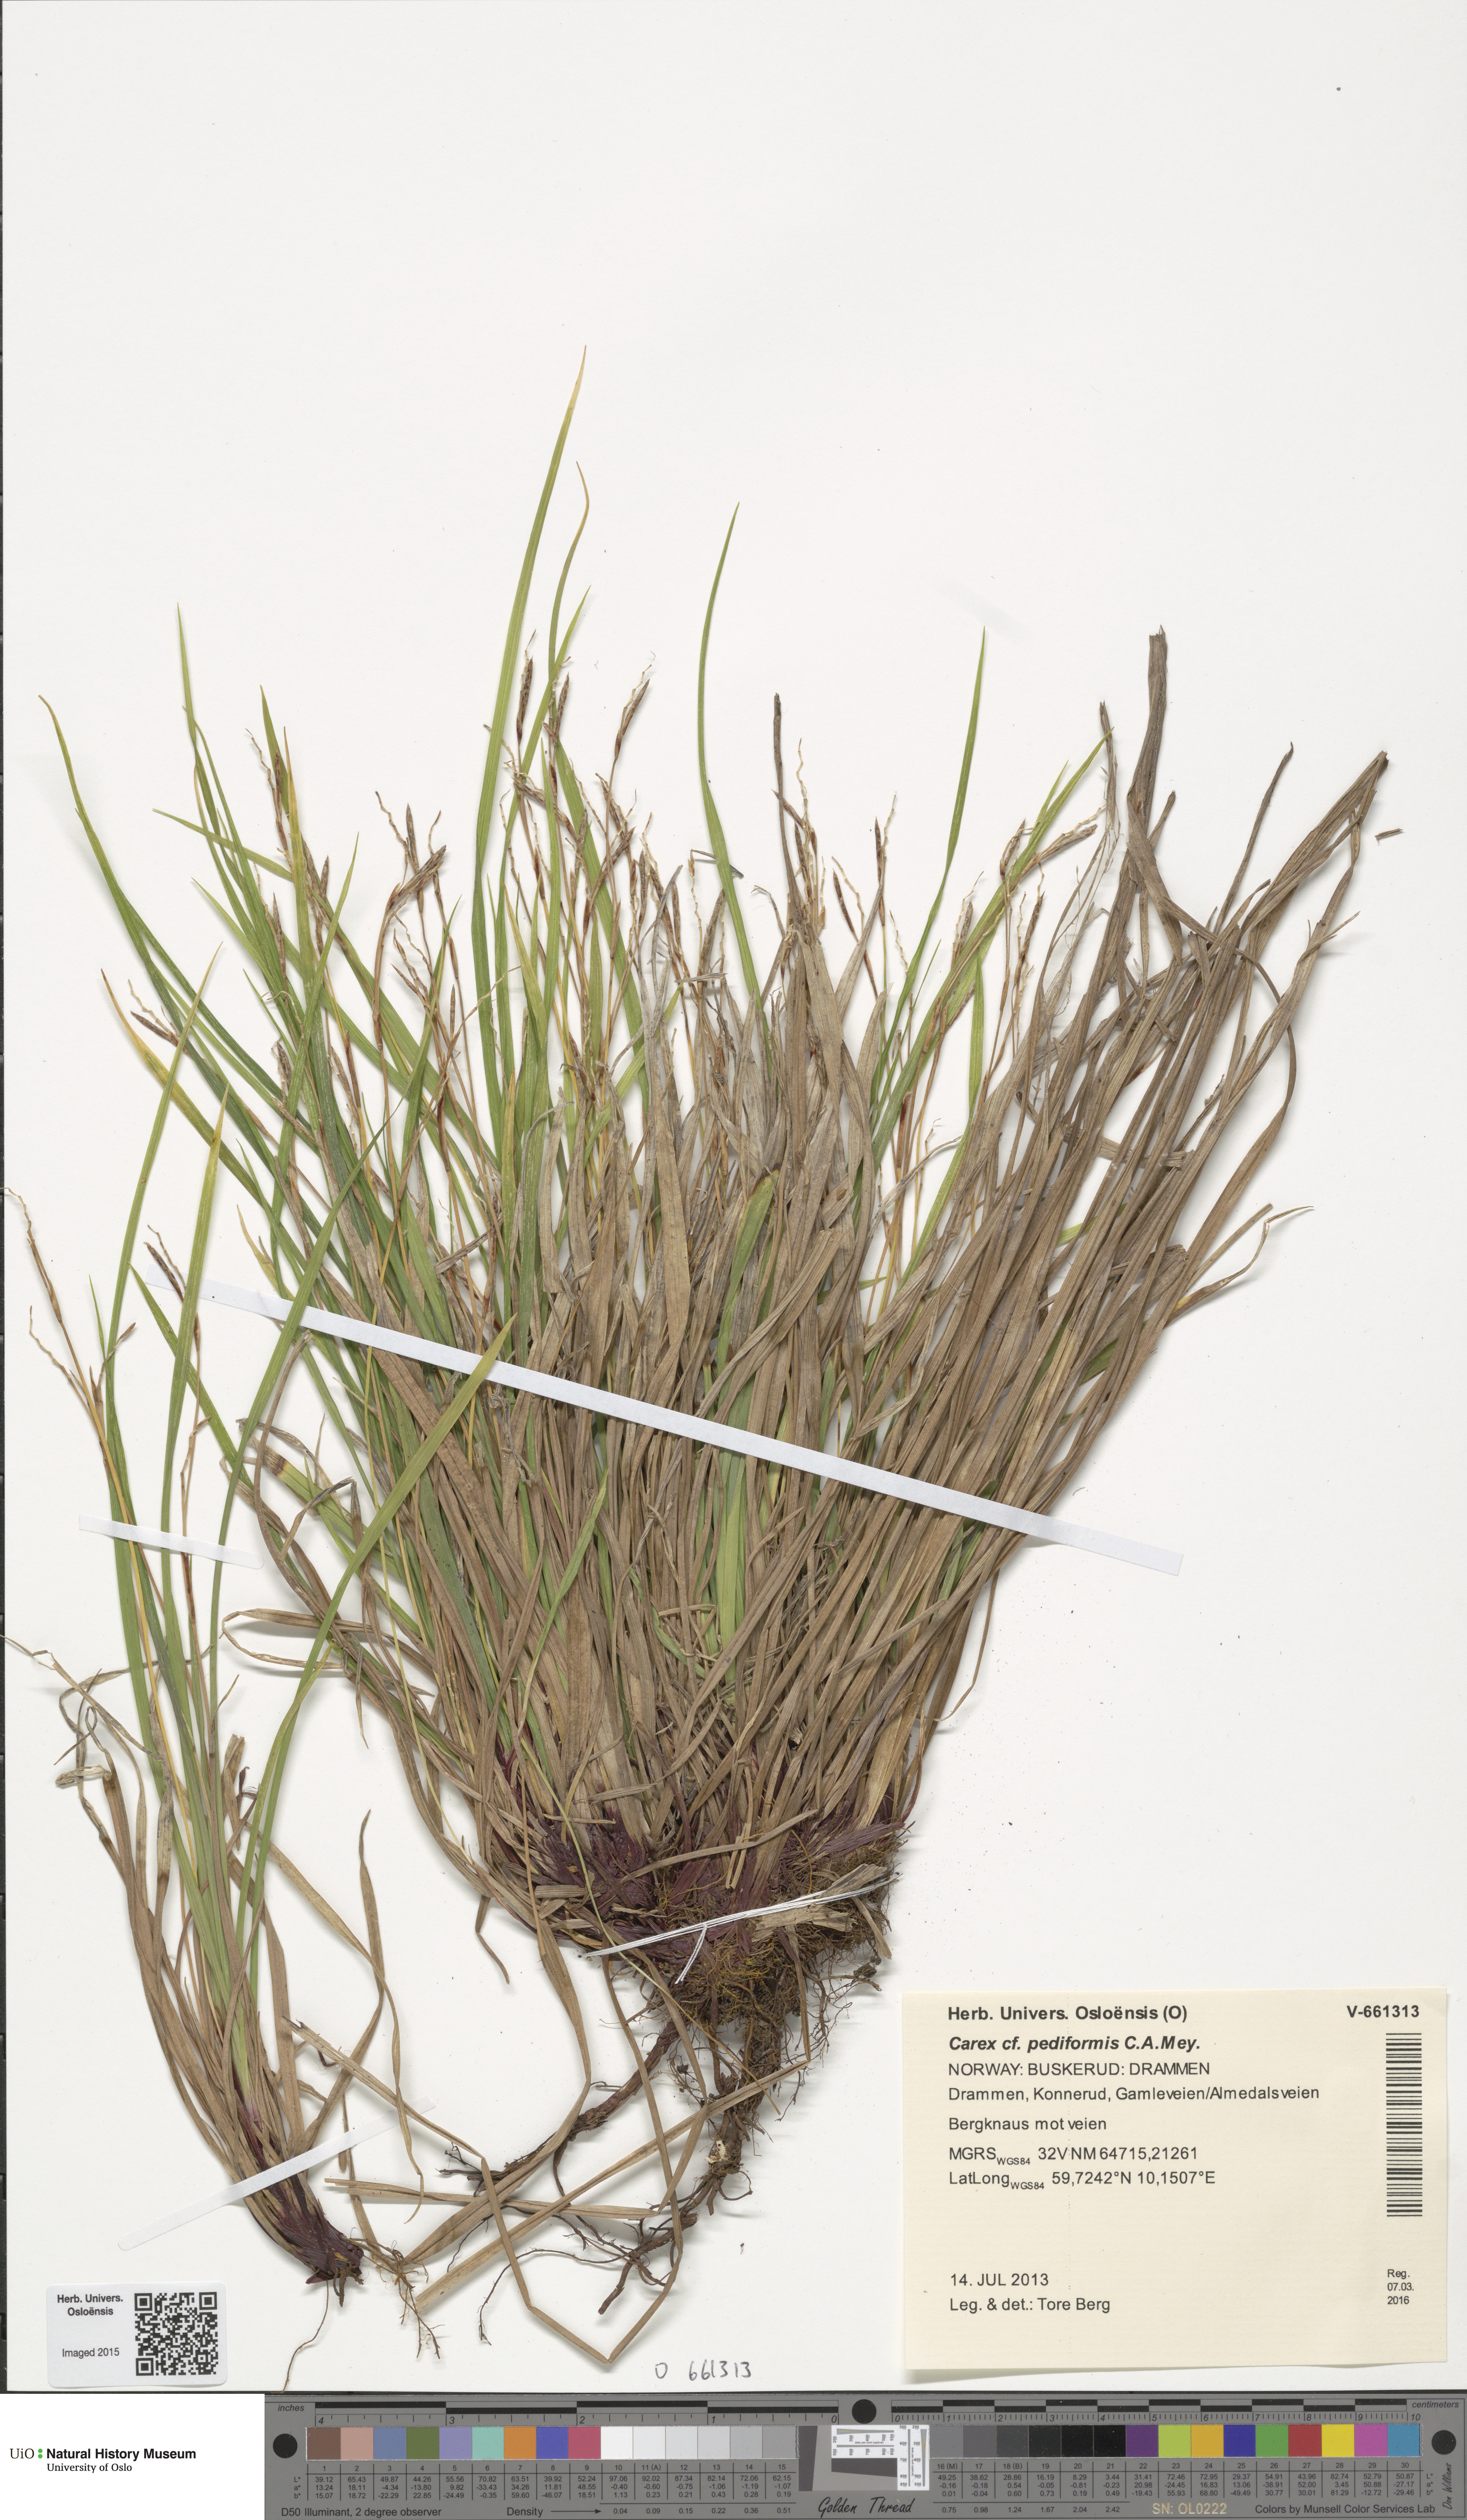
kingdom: Plantae
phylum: Tracheophyta
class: Liliopsida
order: Poales
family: Cyperaceae
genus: Carex
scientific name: Carex rhizina
